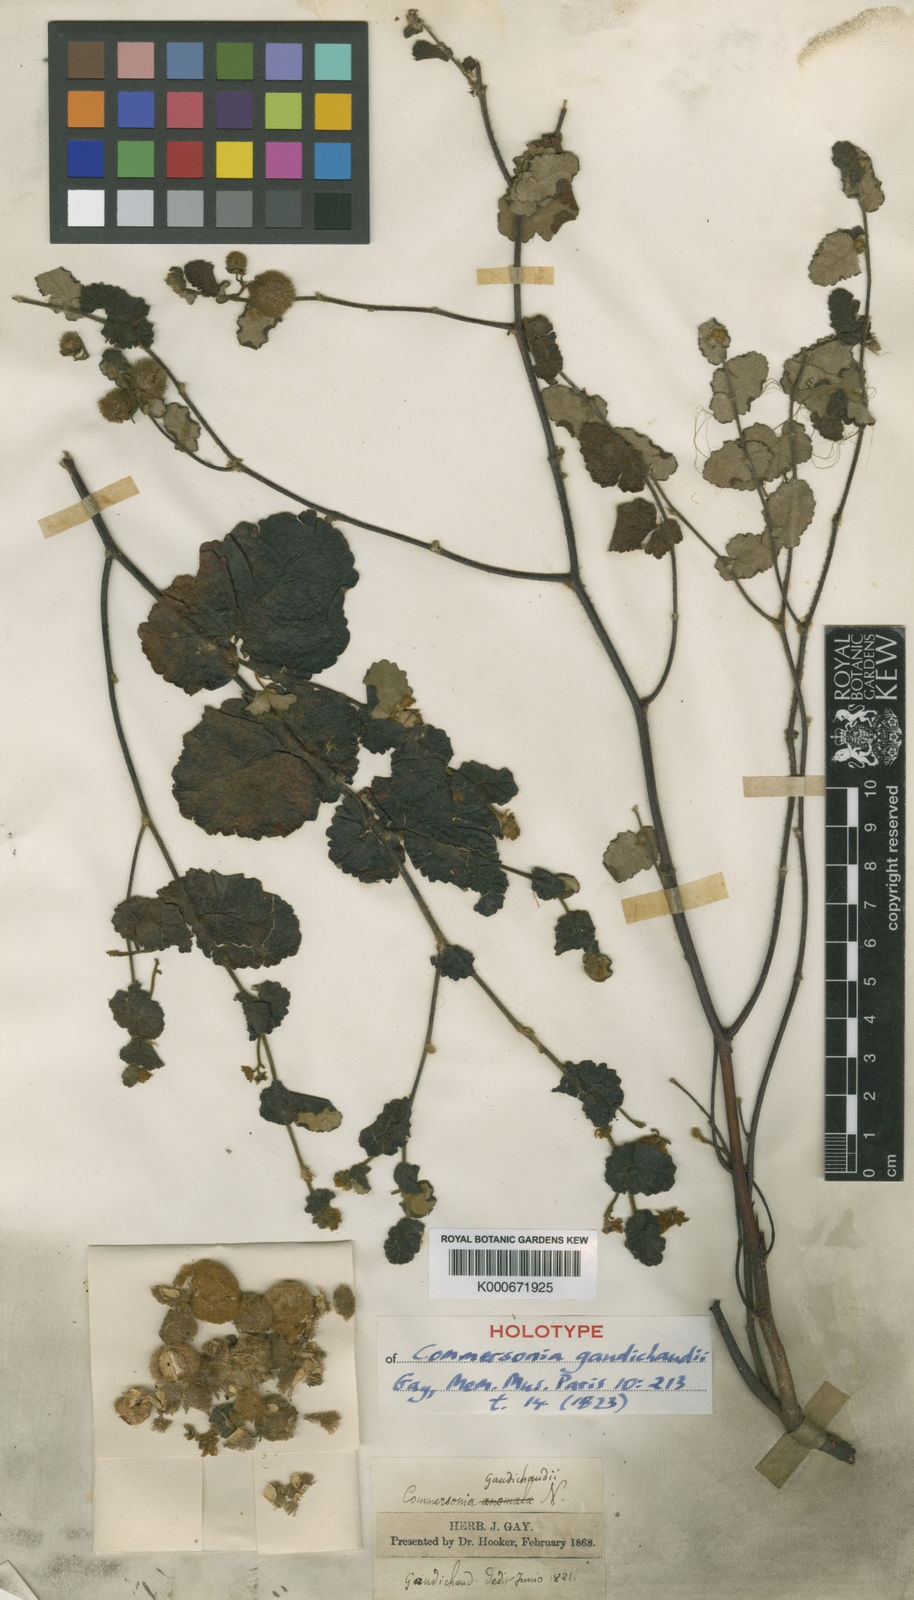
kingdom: Plantae
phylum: Tracheophyta
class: Magnoliopsida
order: Malvales
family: Malvaceae
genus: Androcalva
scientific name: Androcalva gaudichaudii
